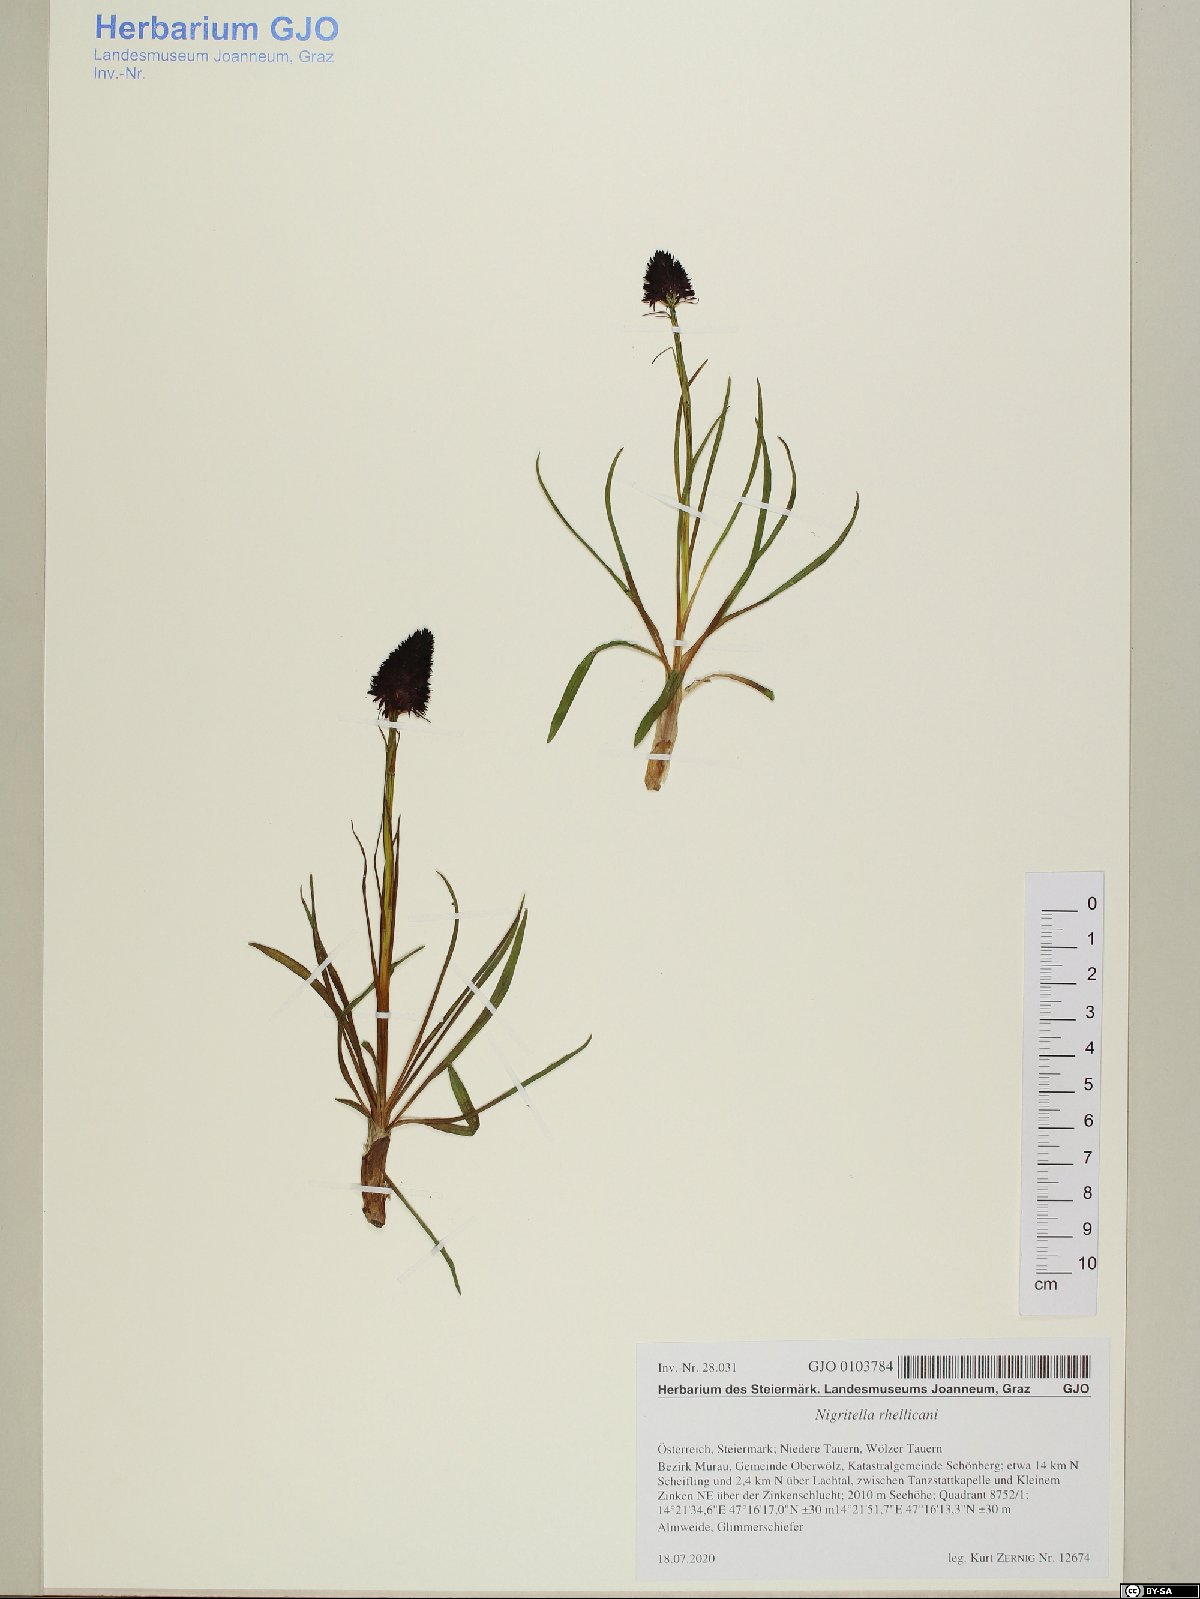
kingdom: Plantae
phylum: Tracheophyta
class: Liliopsida
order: Asparagales
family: Orchidaceae
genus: Gymnadenia
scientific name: Gymnadenia rhellicani
